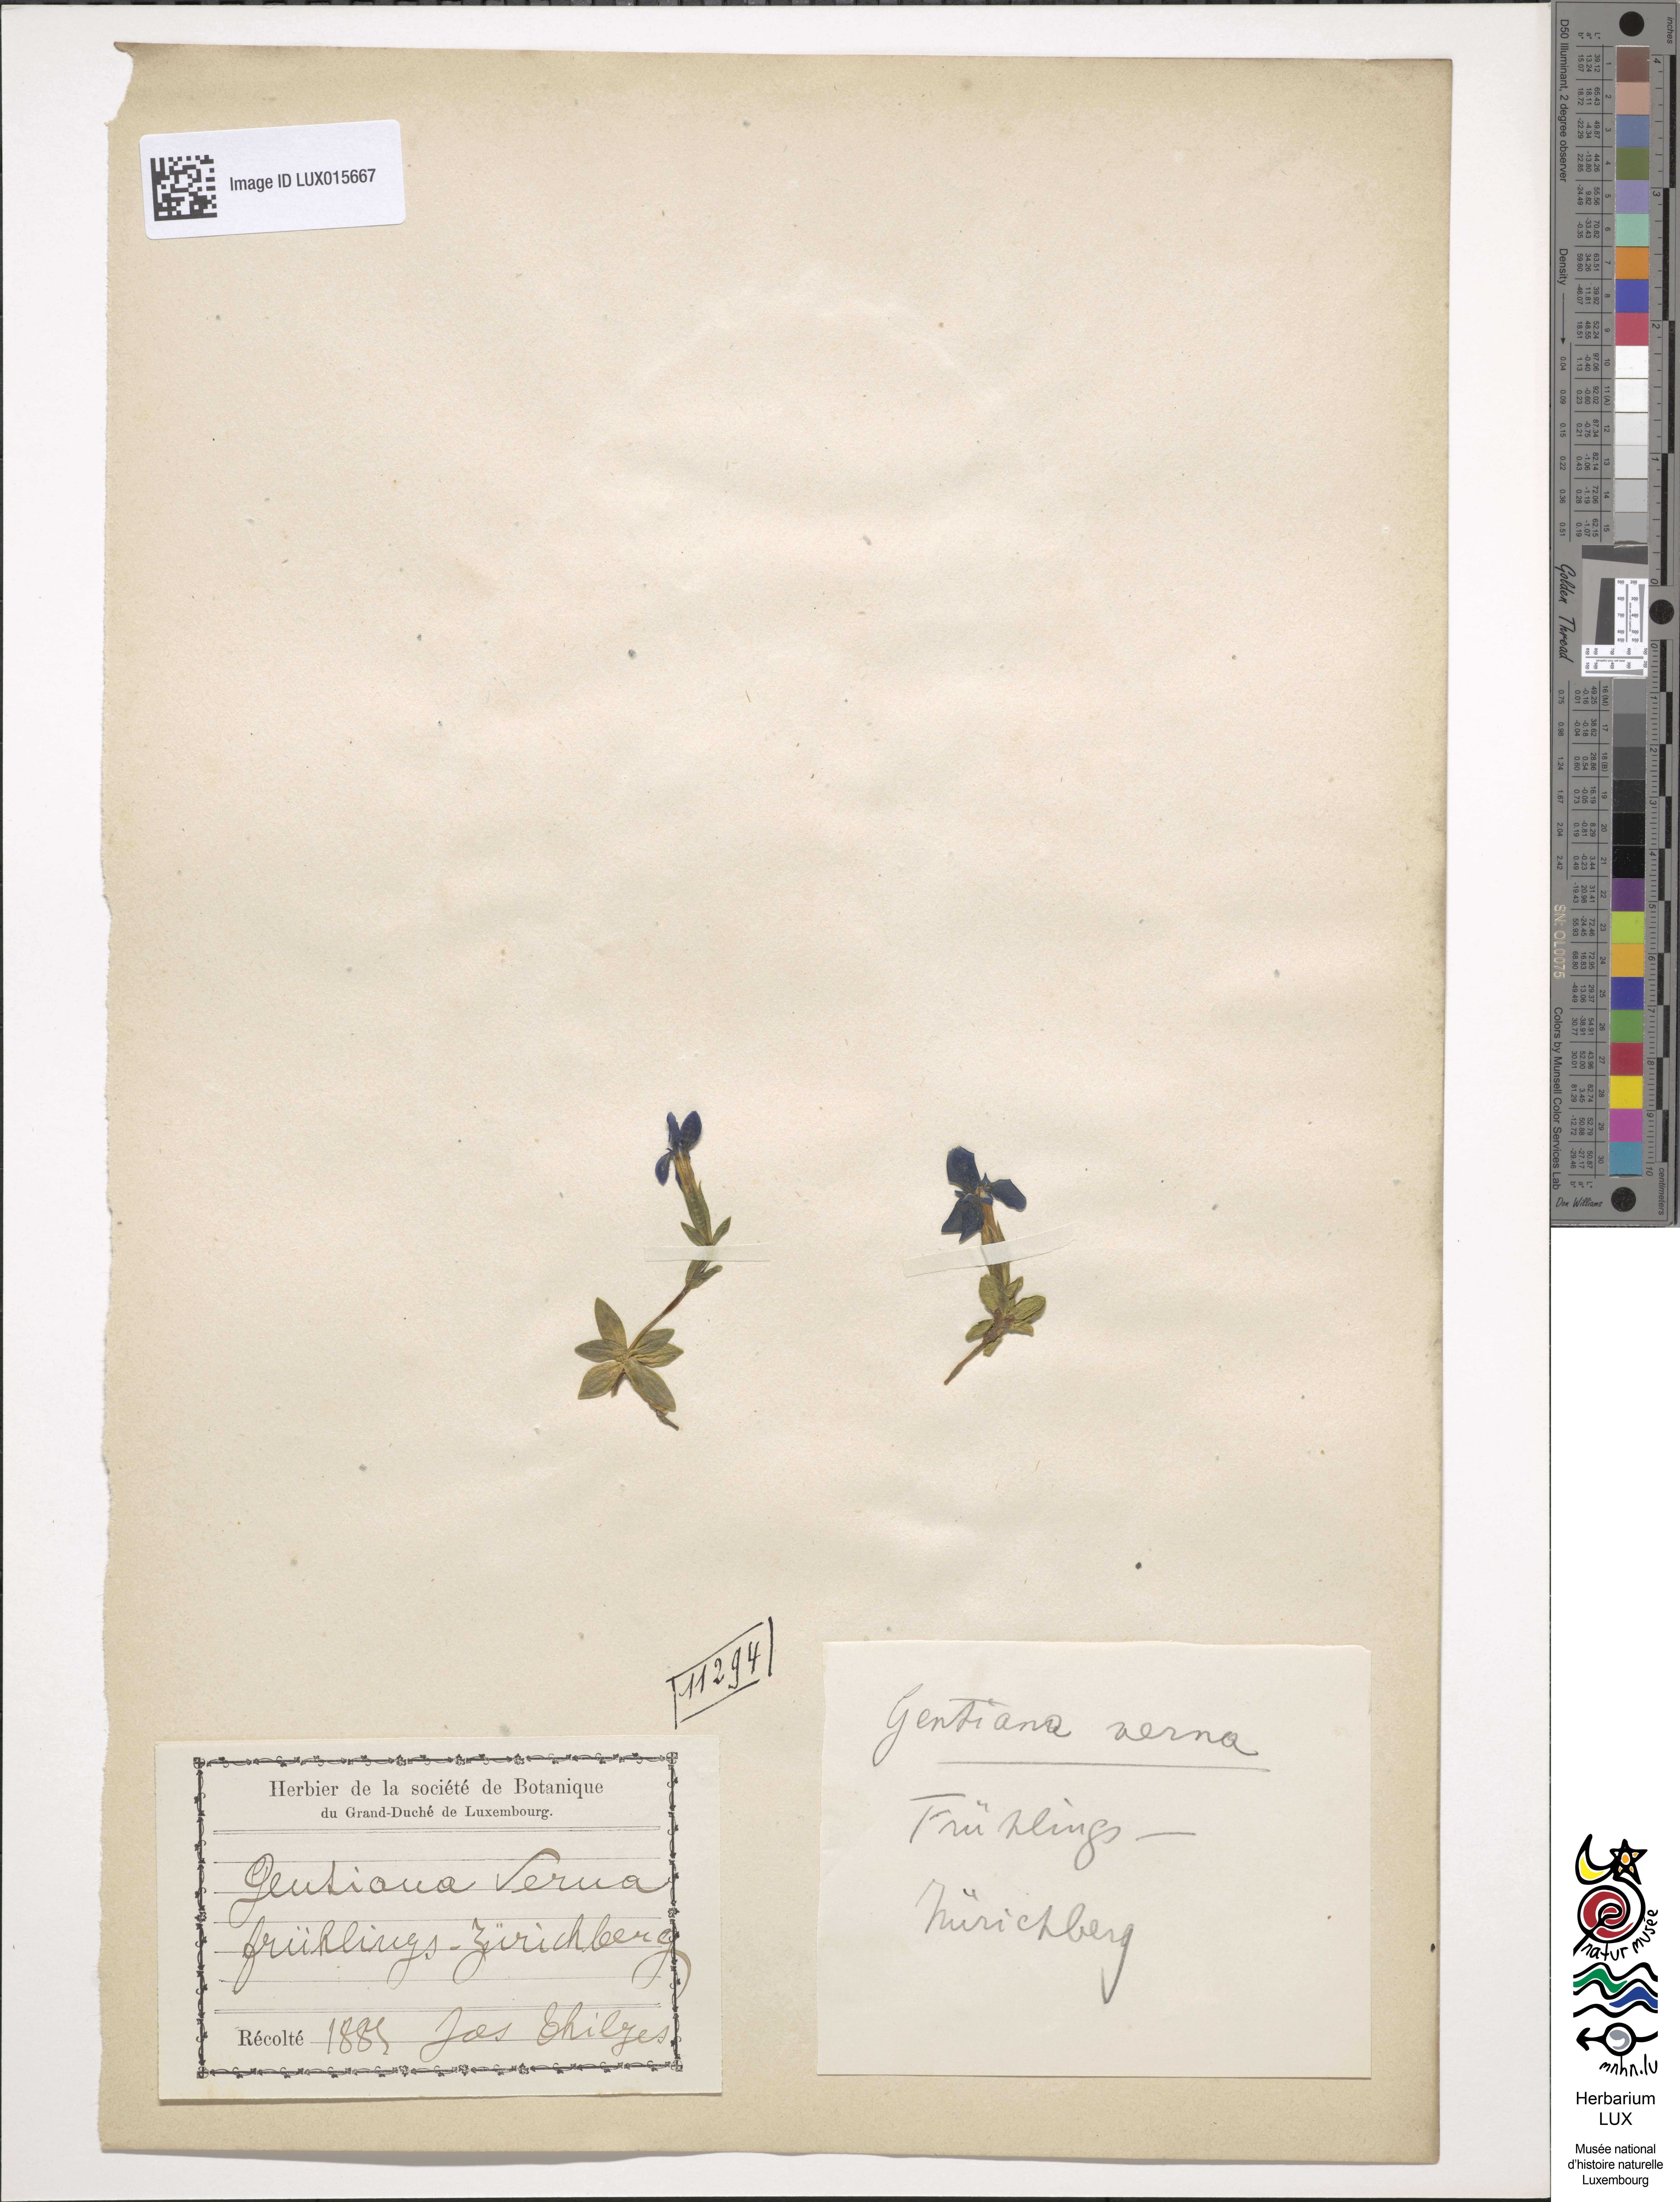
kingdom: Plantae
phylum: Tracheophyta
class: Magnoliopsida
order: Gentianales
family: Gentianaceae
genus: Gentiana
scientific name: Gentiana verna
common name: Spring gentian
